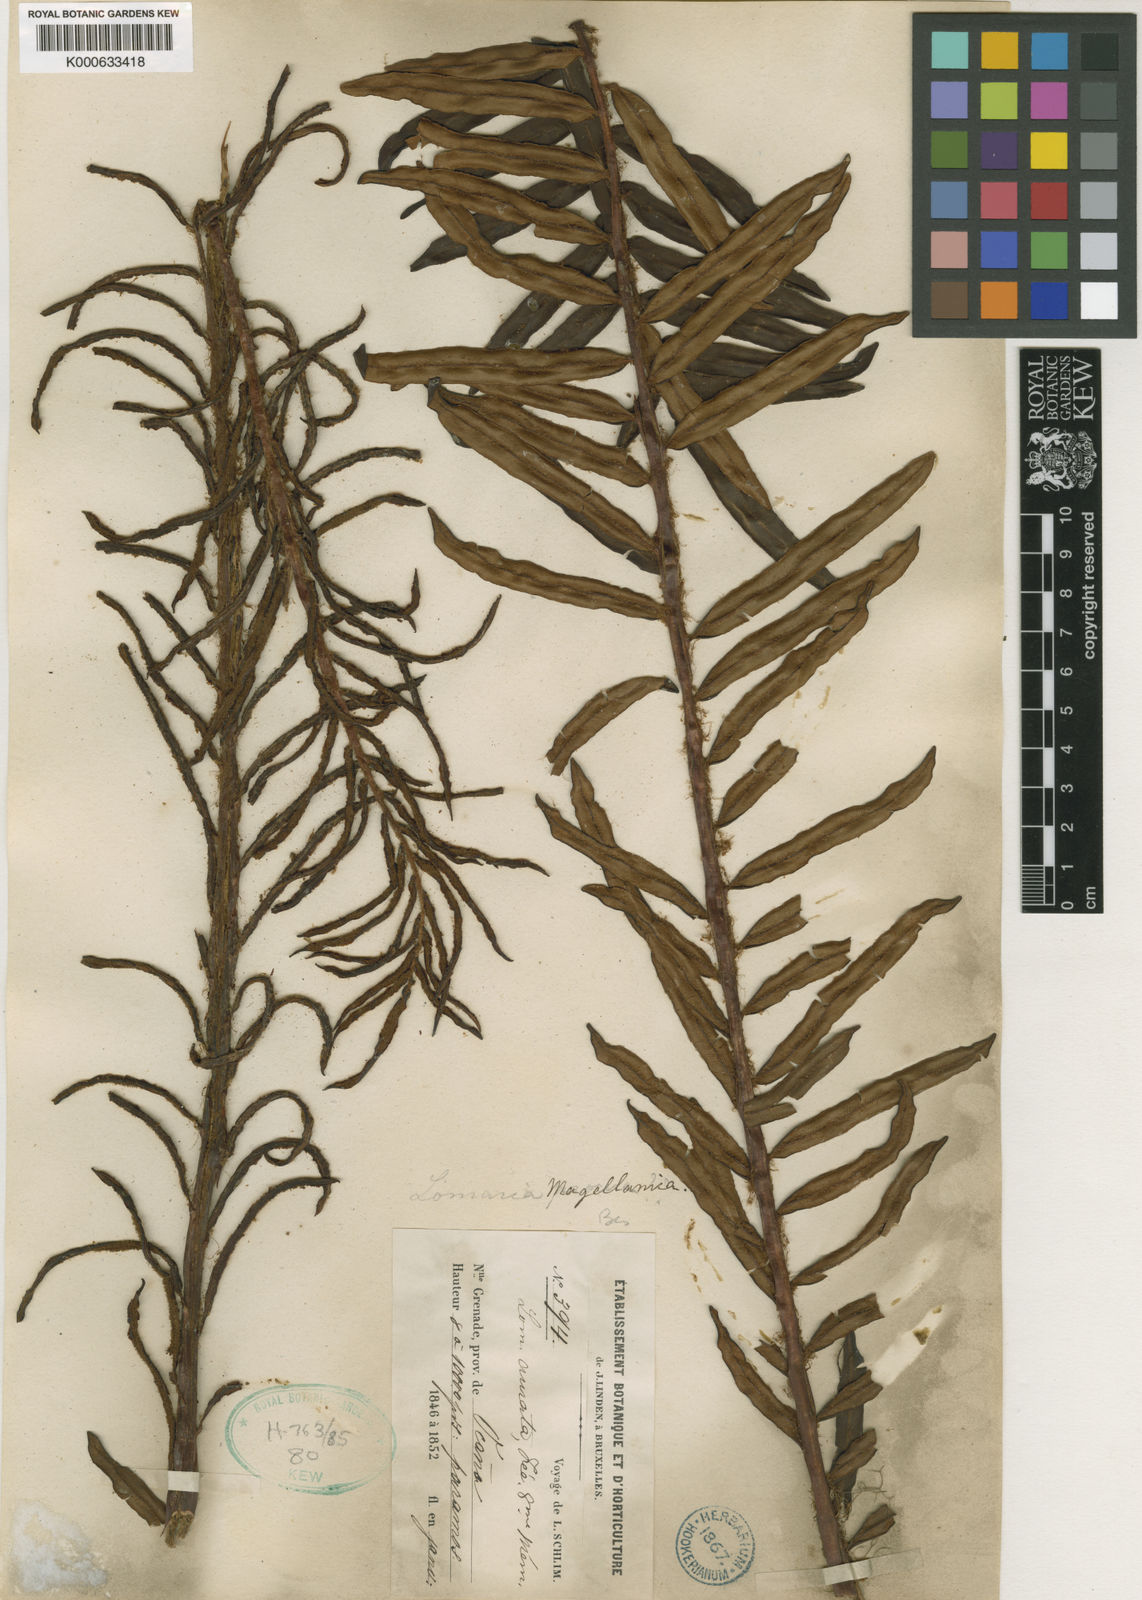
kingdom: Plantae
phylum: Tracheophyta
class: Polypodiopsida
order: Polypodiales
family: Blechnaceae
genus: Blechnum
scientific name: Blechnum
